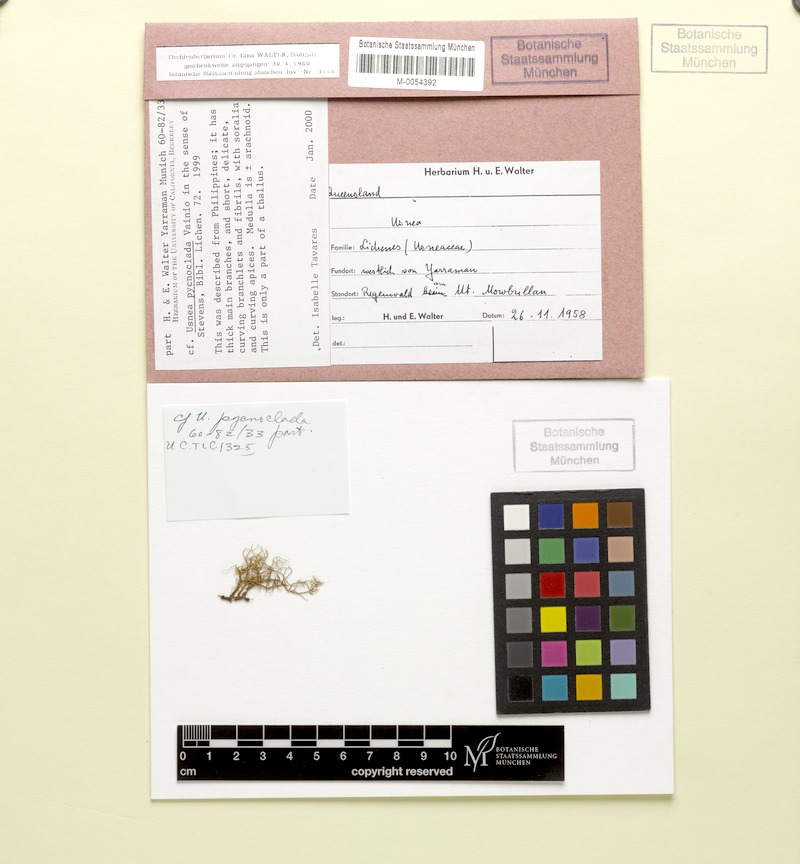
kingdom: Fungi
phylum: Ascomycota
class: Lecanoromycetes
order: Lecanorales
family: Parmeliaceae
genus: Usnea
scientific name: Usnea pycnoclada
